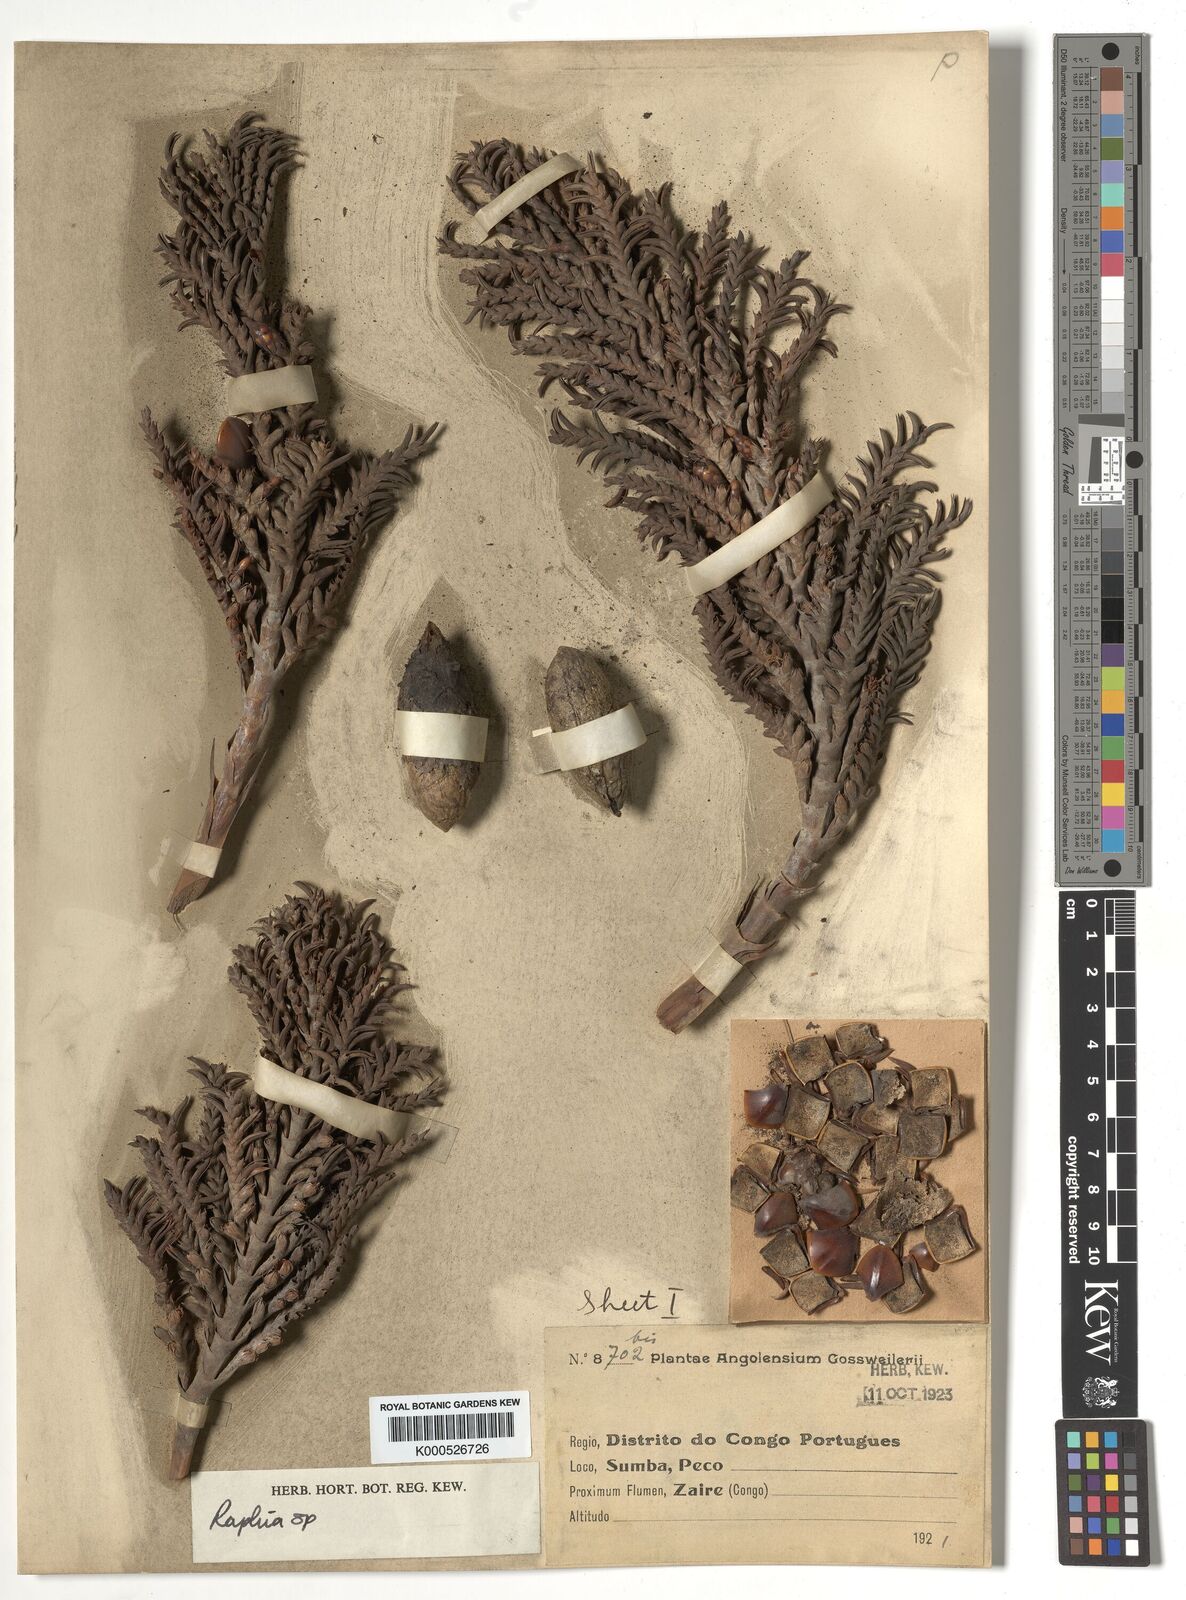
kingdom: Plantae
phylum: Tracheophyta
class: Liliopsida
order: Arecales
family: Arecaceae
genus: Raphia
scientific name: Raphia
